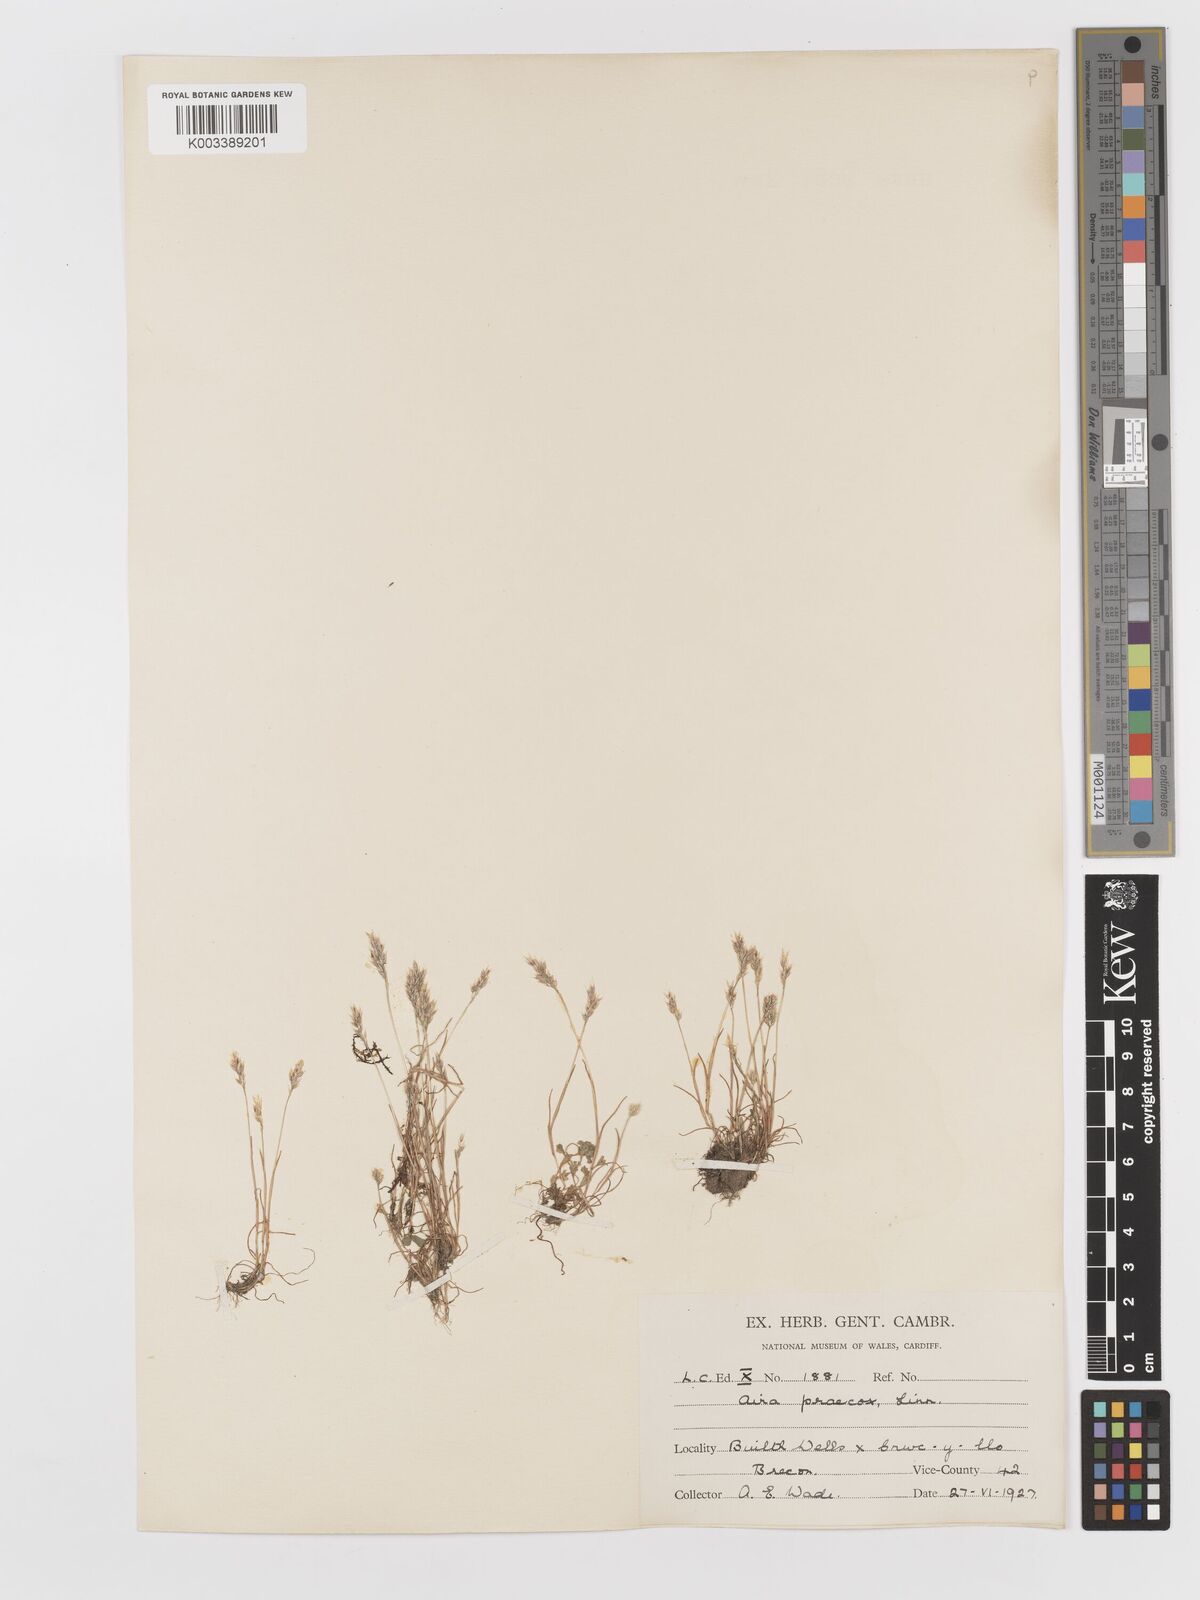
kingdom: Plantae
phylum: Tracheophyta
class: Liliopsida
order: Poales
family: Poaceae
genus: Aira
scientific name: Aira praecox
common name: Early hair-grass
